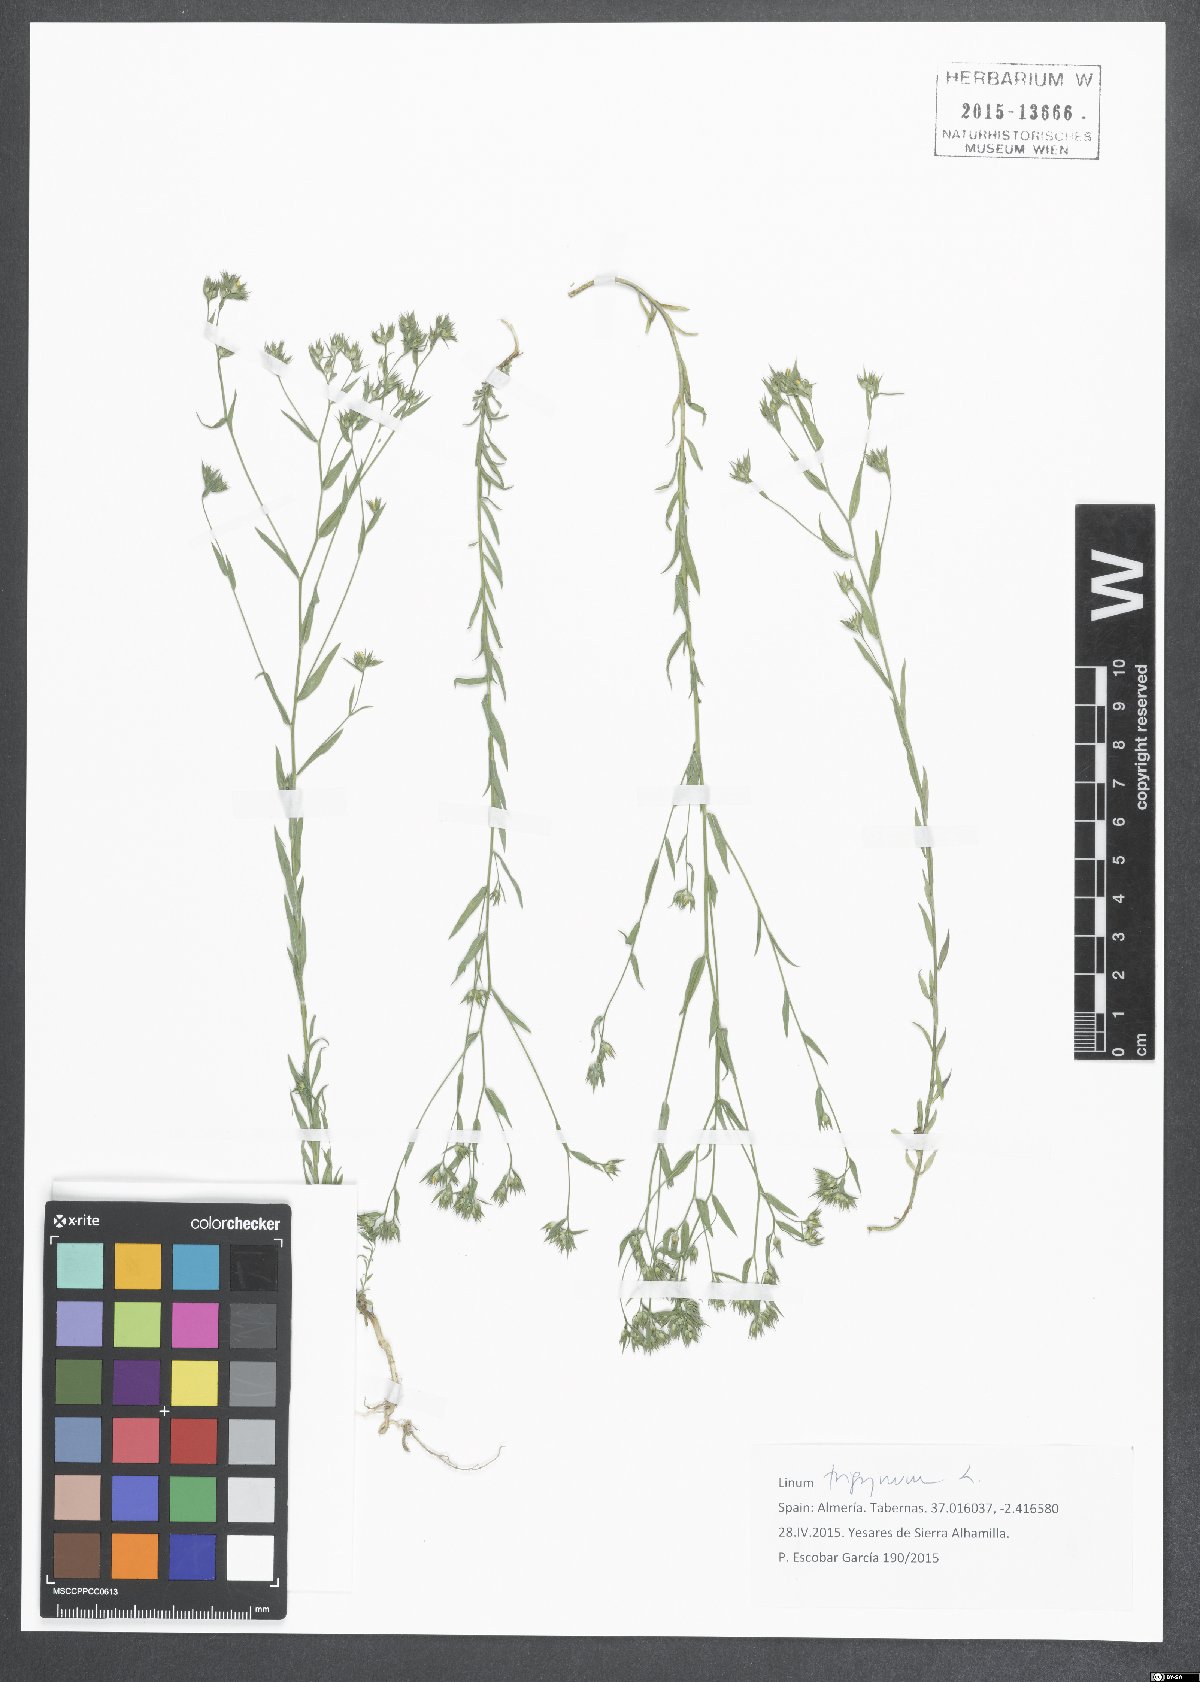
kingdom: Plantae
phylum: Tracheophyta
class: Magnoliopsida
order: Malpighiales
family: Linaceae
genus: Linum
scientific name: Linum trigynum
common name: French flax
